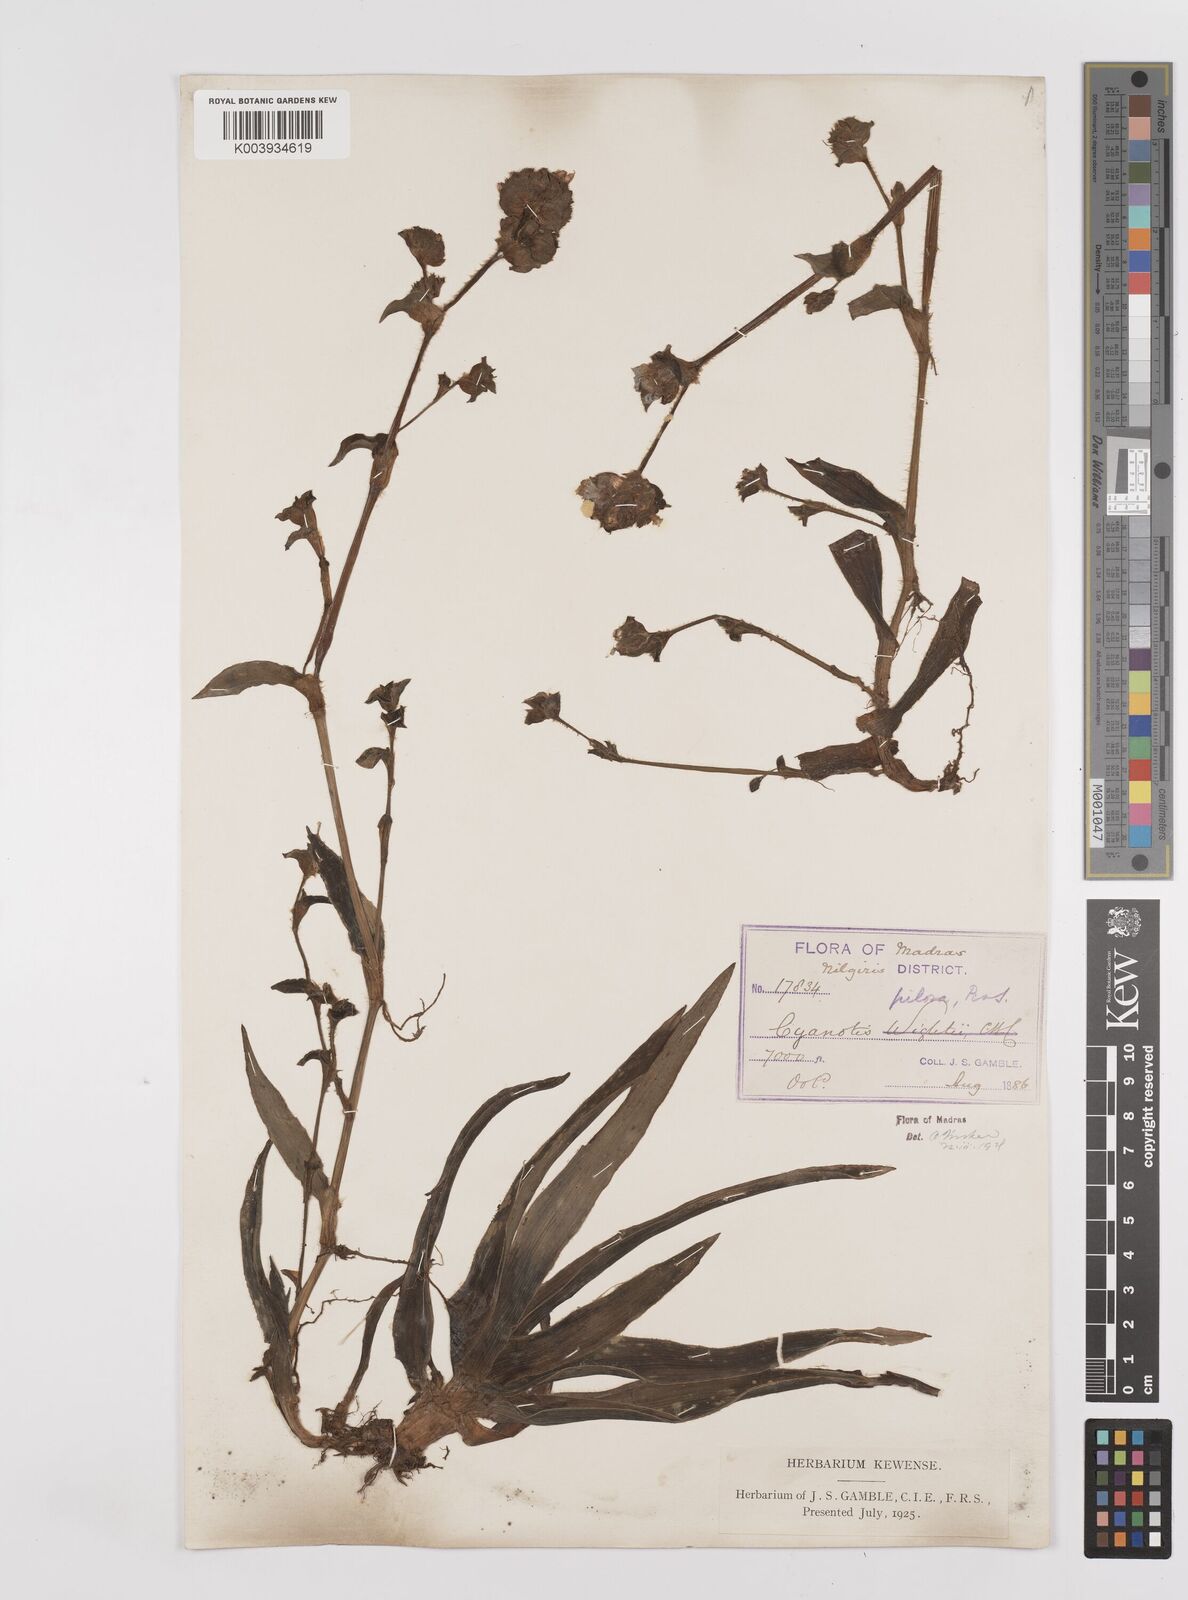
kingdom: Plantae
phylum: Tracheophyta
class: Liliopsida
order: Commelinales
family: Commelinaceae
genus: Cyanotis
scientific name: Cyanotis pilosa
